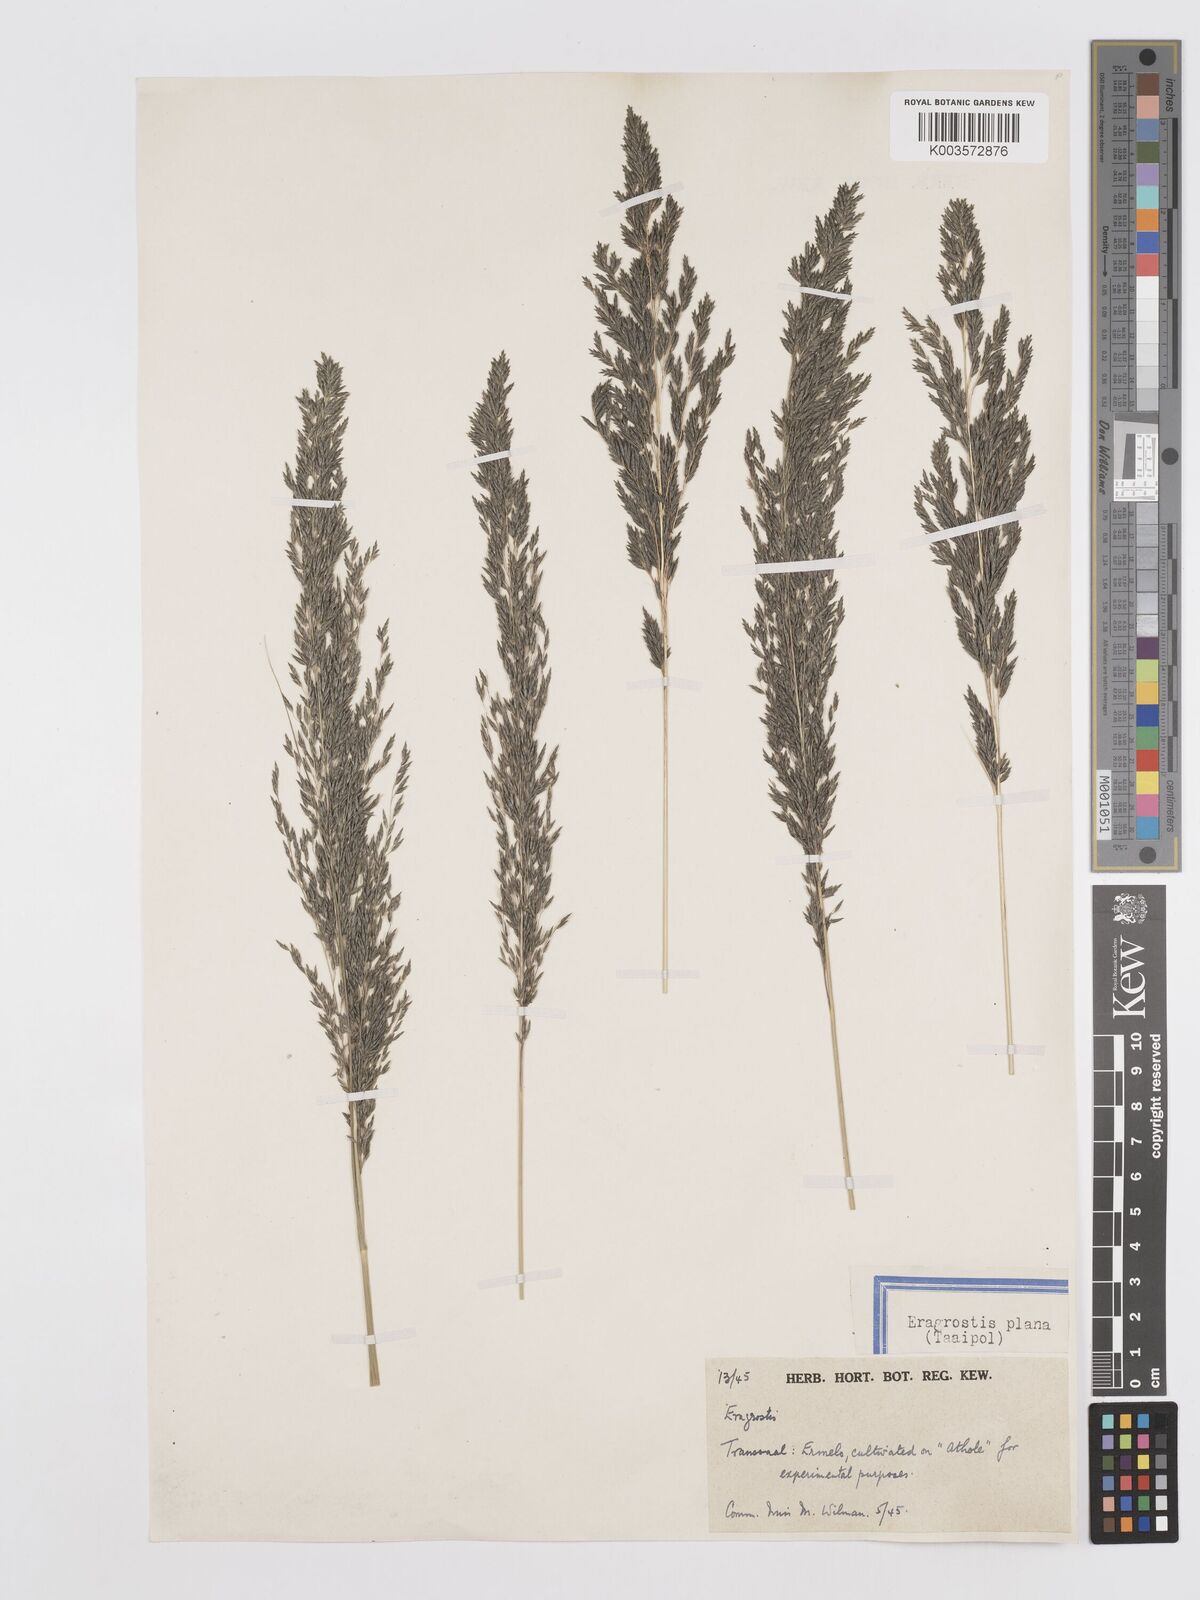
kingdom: Plantae
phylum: Tracheophyta
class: Liliopsida
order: Poales
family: Poaceae
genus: Eragrostis
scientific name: Eragrostis curvula
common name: African love-grass
